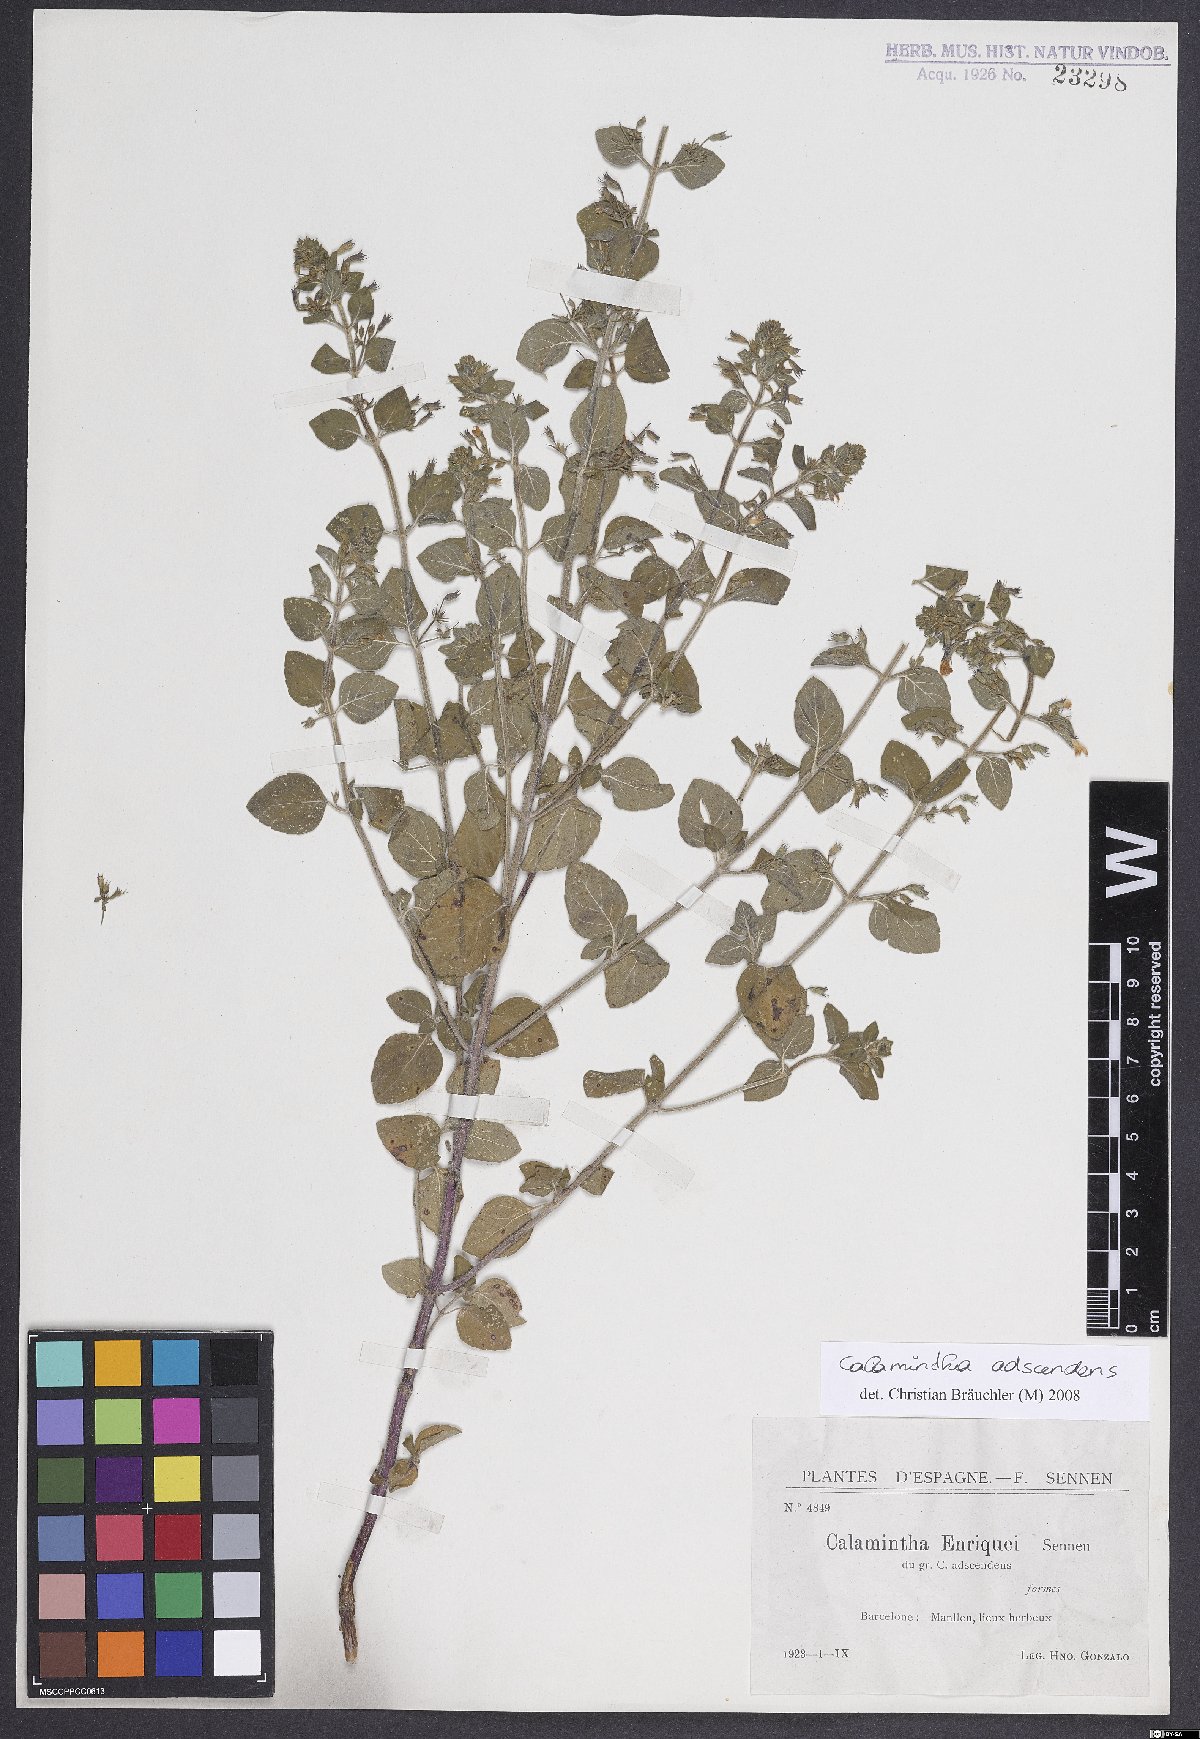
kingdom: Plantae
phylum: Tracheophyta
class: Magnoliopsida
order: Lamiales
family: Lamiaceae
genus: Clinopodium
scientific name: Clinopodium menthifolium
